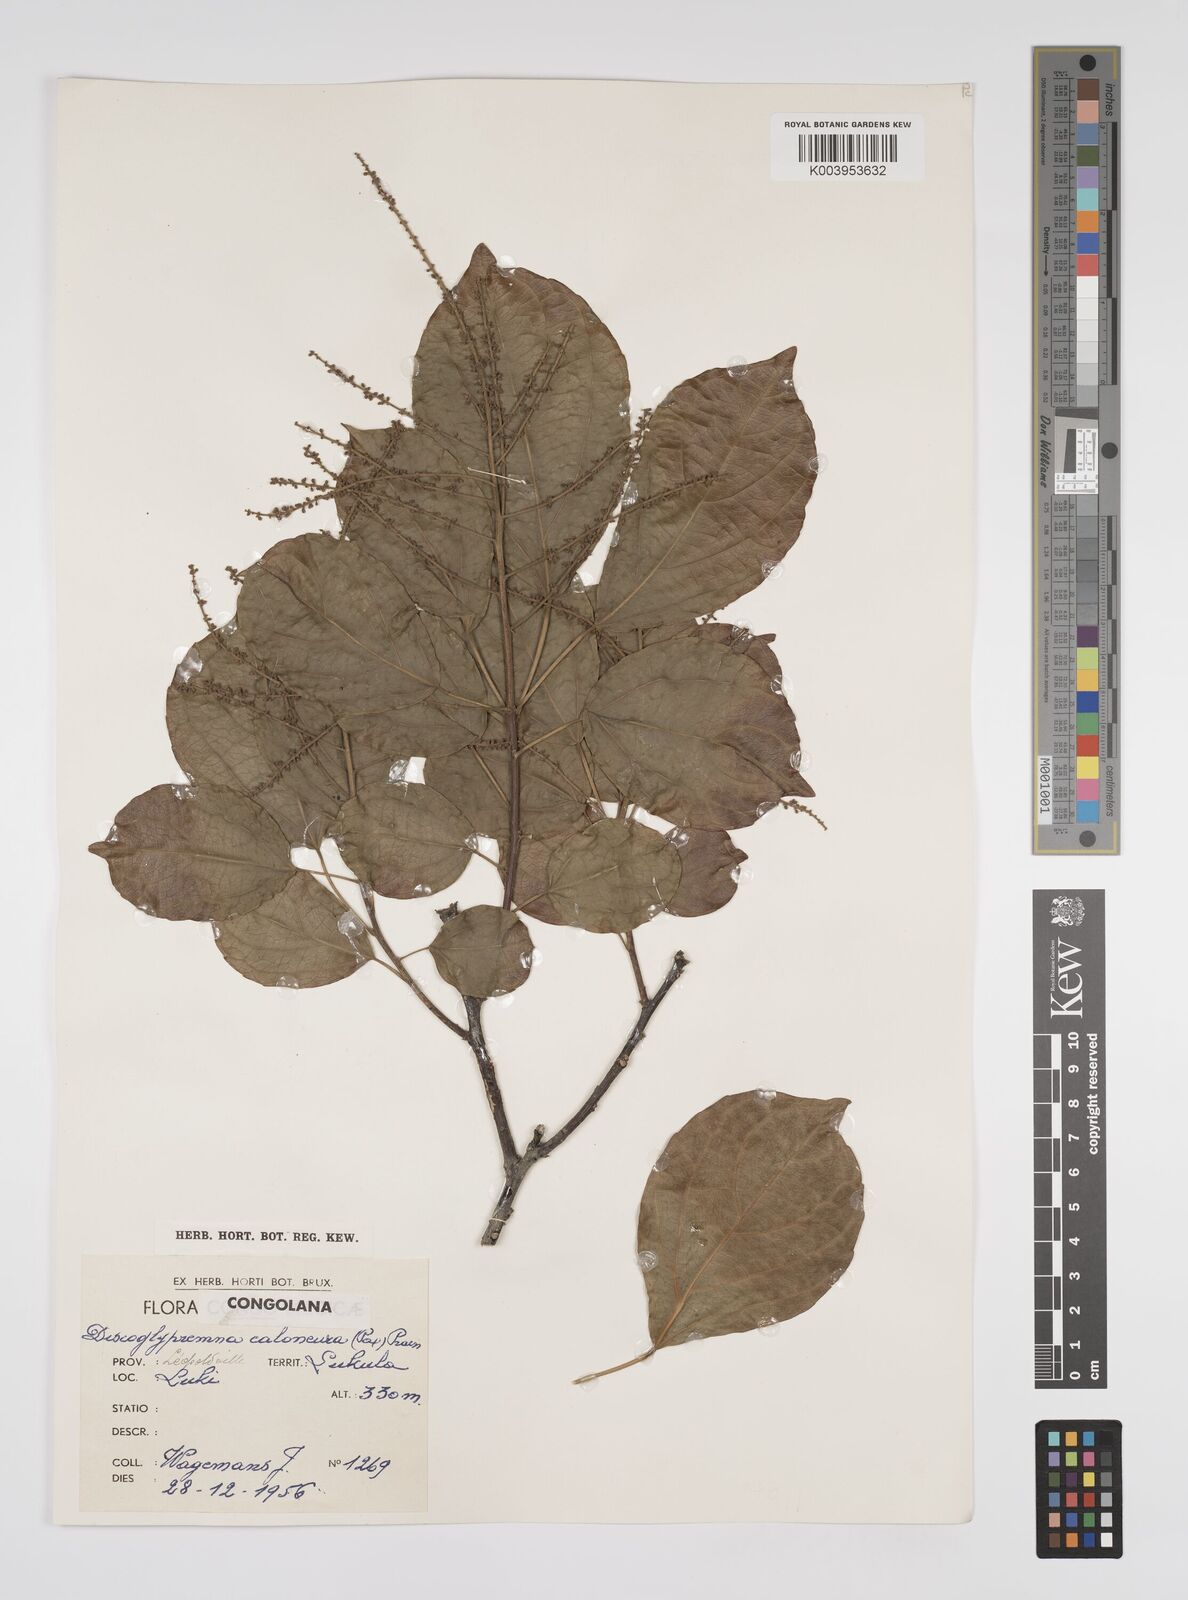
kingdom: Plantae
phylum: Tracheophyta
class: Magnoliopsida
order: Malpighiales
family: Euphorbiaceae
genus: Discoglypremna
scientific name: Discoglypremna caloneura
